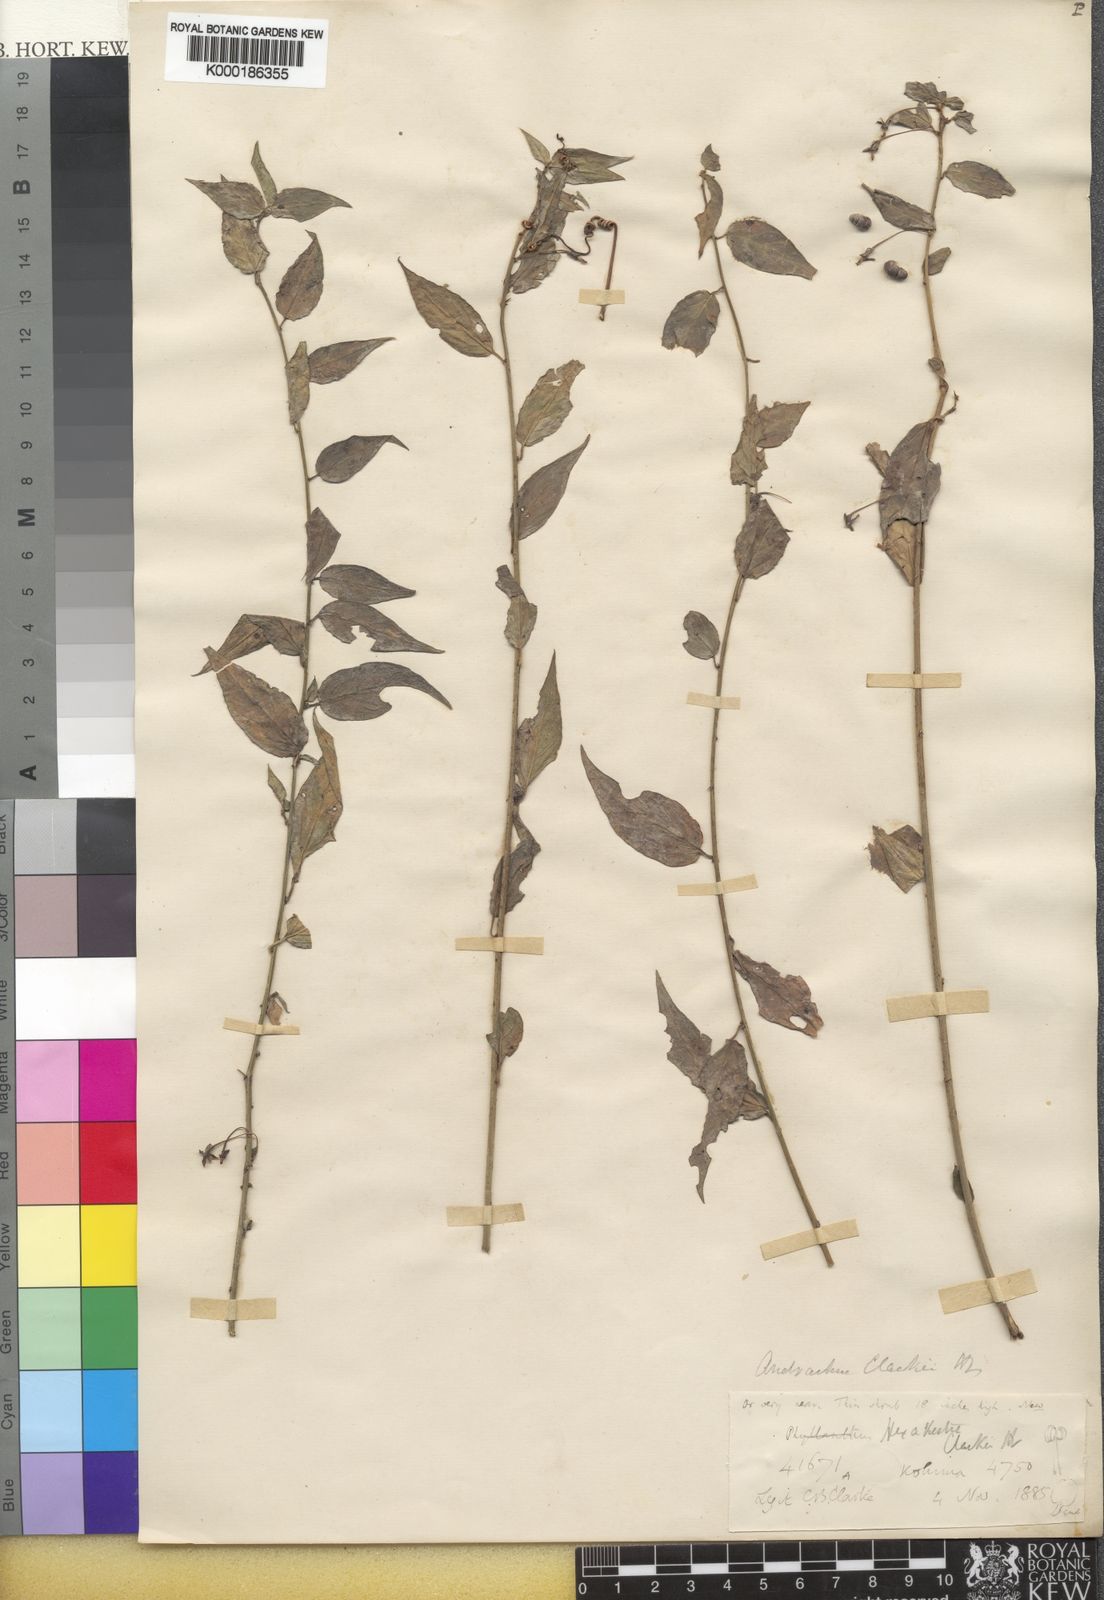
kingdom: Plantae
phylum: Tracheophyta
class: Magnoliopsida
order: Malpighiales
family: Phyllanthaceae
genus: Leptopus
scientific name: Leptopus clarkei
